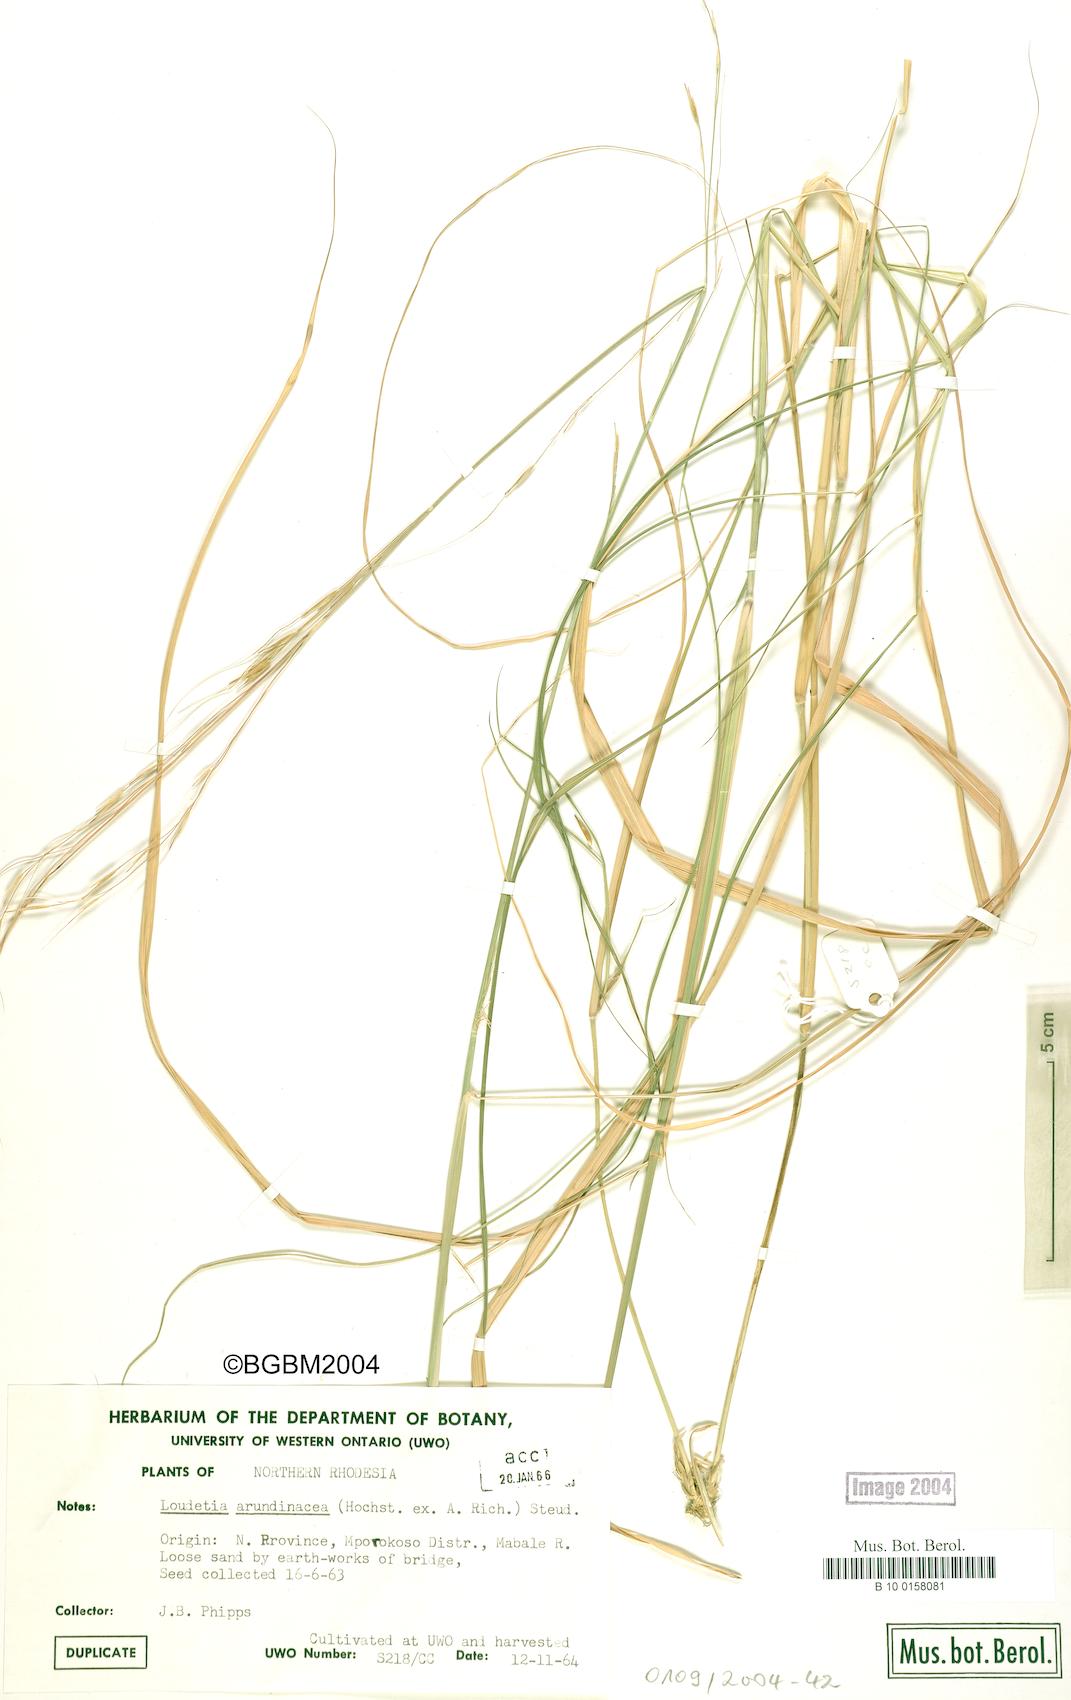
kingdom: Plantae
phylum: Tracheophyta
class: Liliopsida
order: Poales
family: Poaceae
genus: Loudetia
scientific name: Loudetia arundinacea
